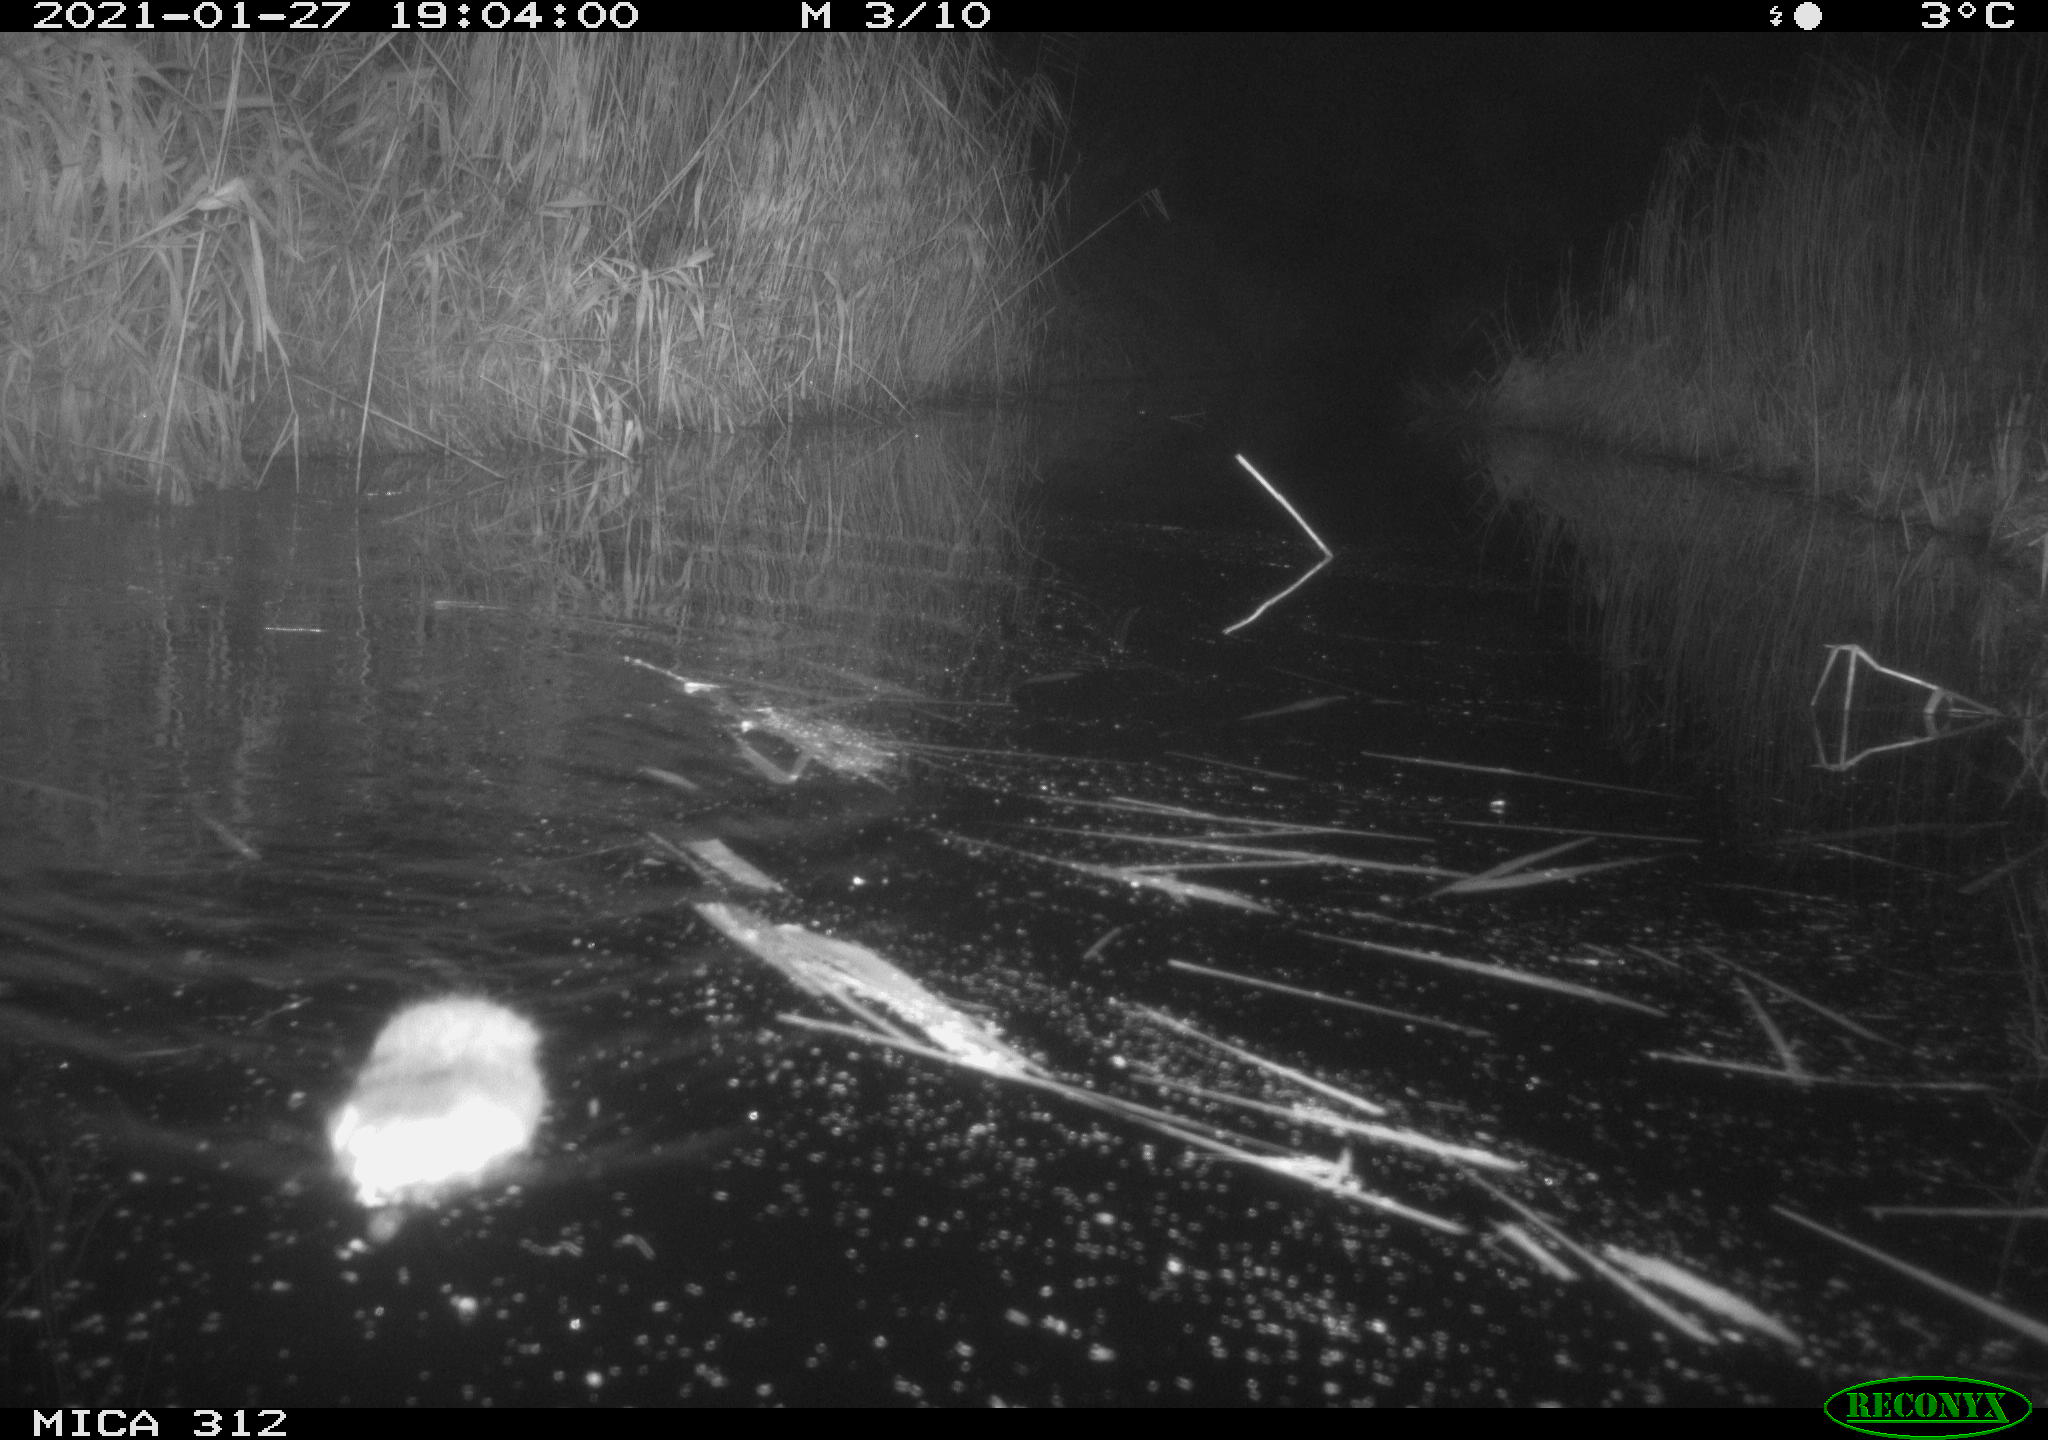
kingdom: Animalia
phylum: Chordata
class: Mammalia
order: Rodentia
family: Muridae
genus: Rattus
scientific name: Rattus norvegicus
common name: Brown rat
